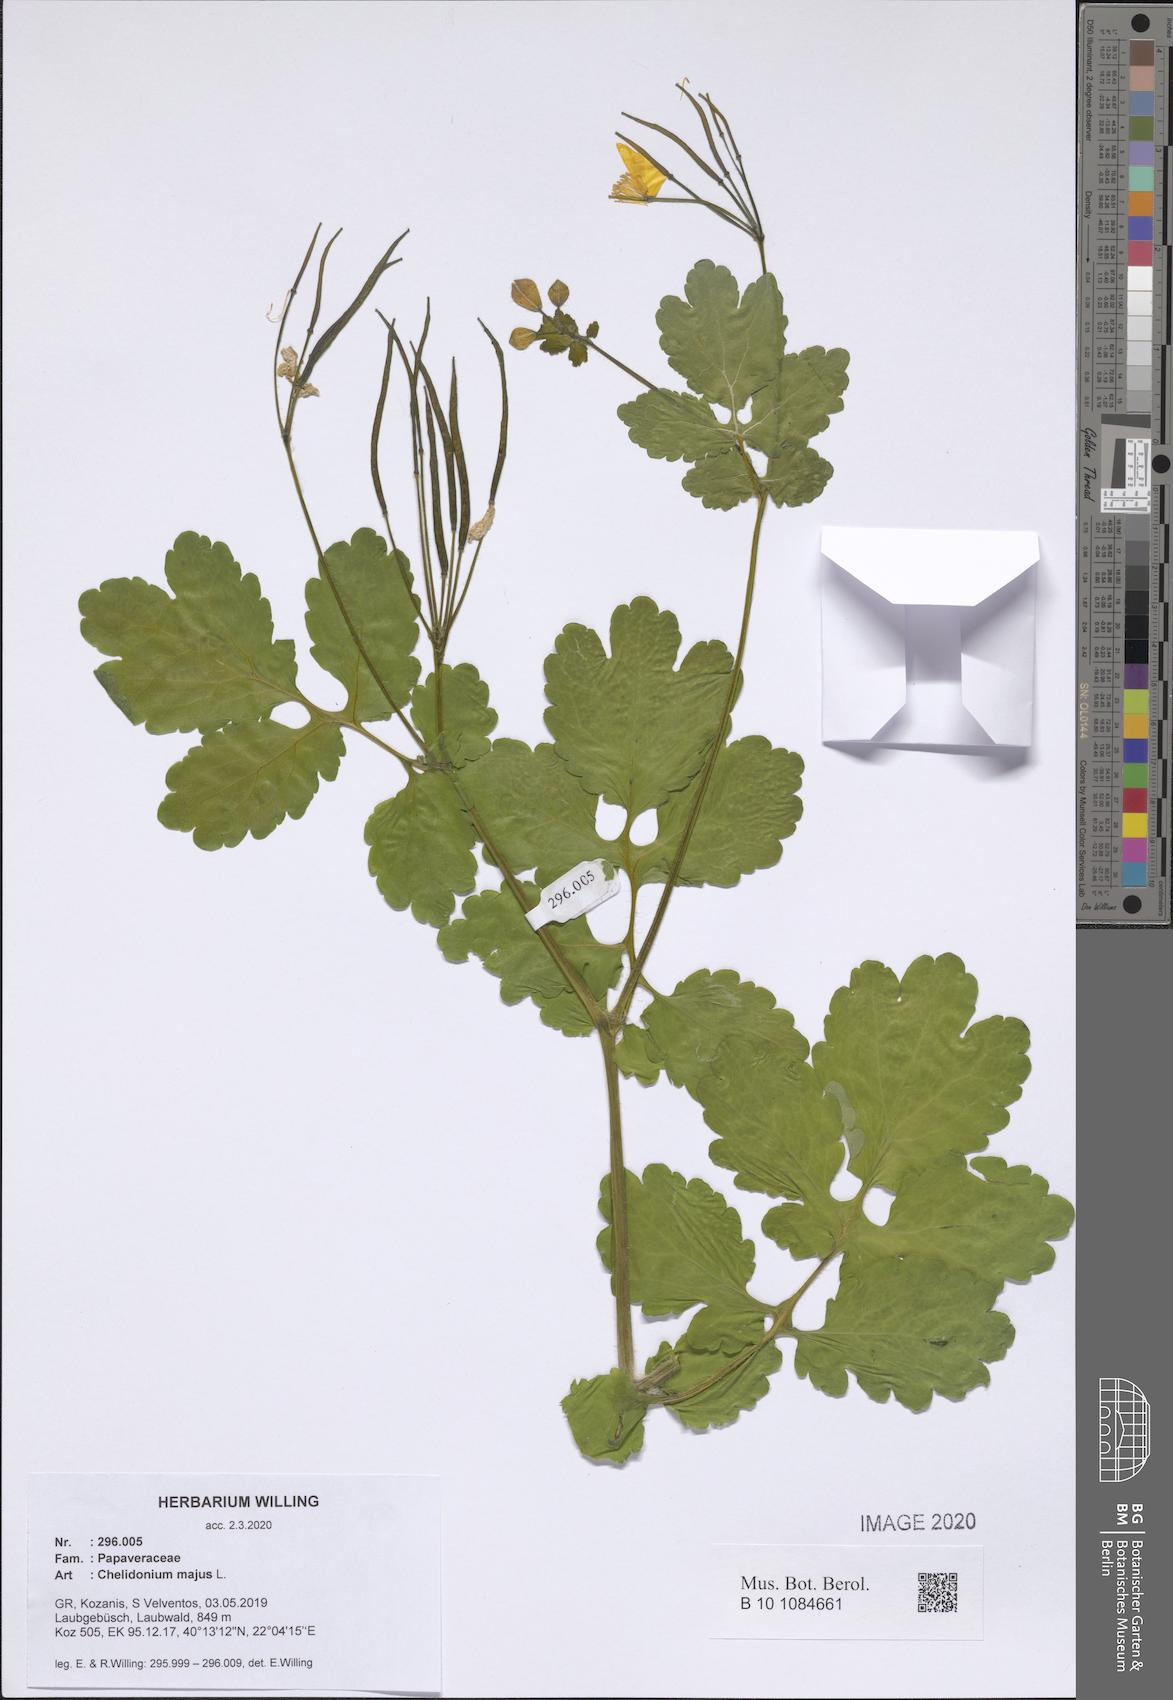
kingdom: Plantae
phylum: Tracheophyta
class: Magnoliopsida
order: Ranunculales
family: Papaveraceae
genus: Chelidonium
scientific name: Chelidonium majus
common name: Greater celandine
